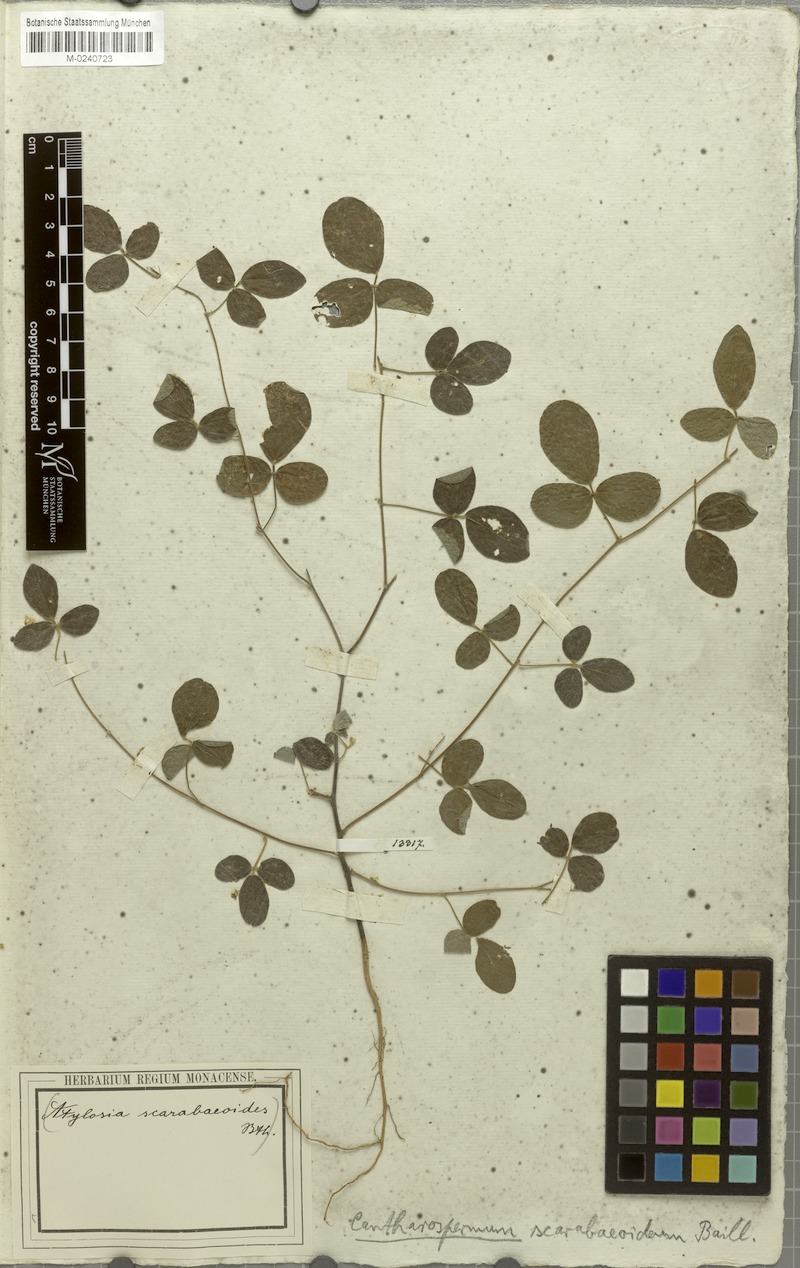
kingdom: Plantae
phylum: Tracheophyta
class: Magnoliopsida
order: Fabales
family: Fabaceae
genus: Cajanus
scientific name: Cajanus scarabaeoides
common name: Showy pigeonpea
